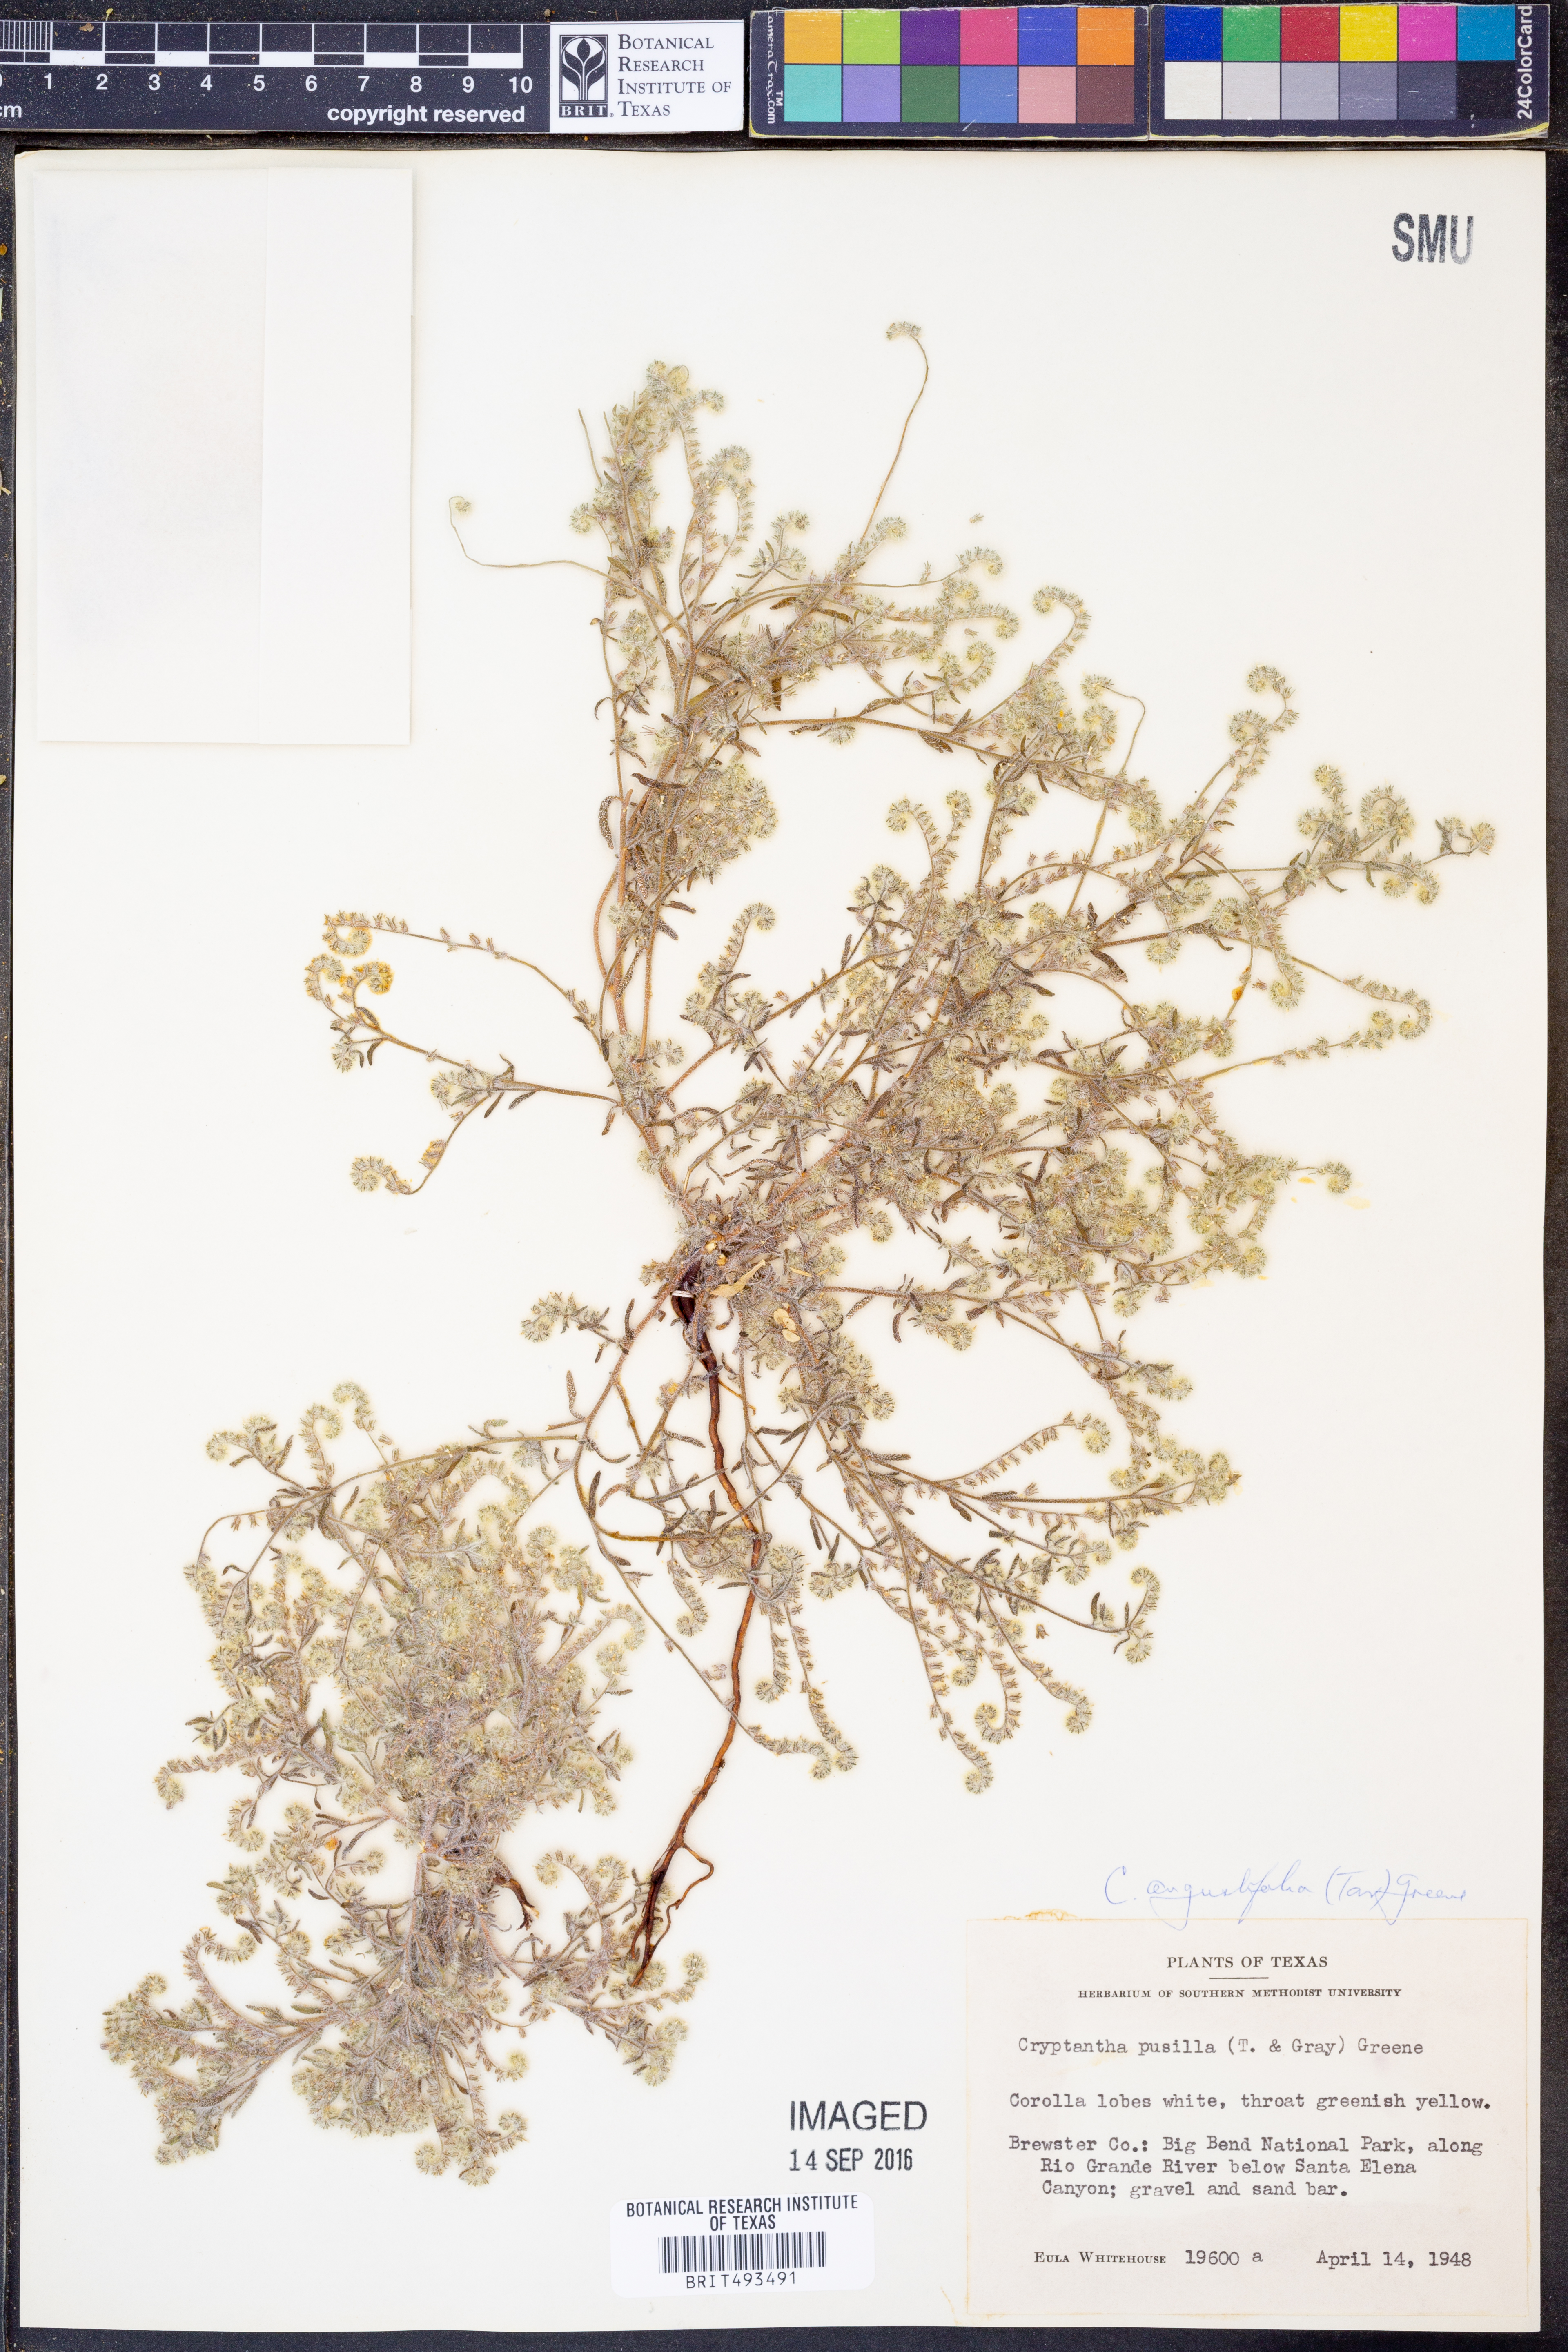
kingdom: Plantae
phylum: Tracheophyta
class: Magnoliopsida
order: Boraginales
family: Boraginaceae
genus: Johnstonella
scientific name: Johnstonella angustifolia
